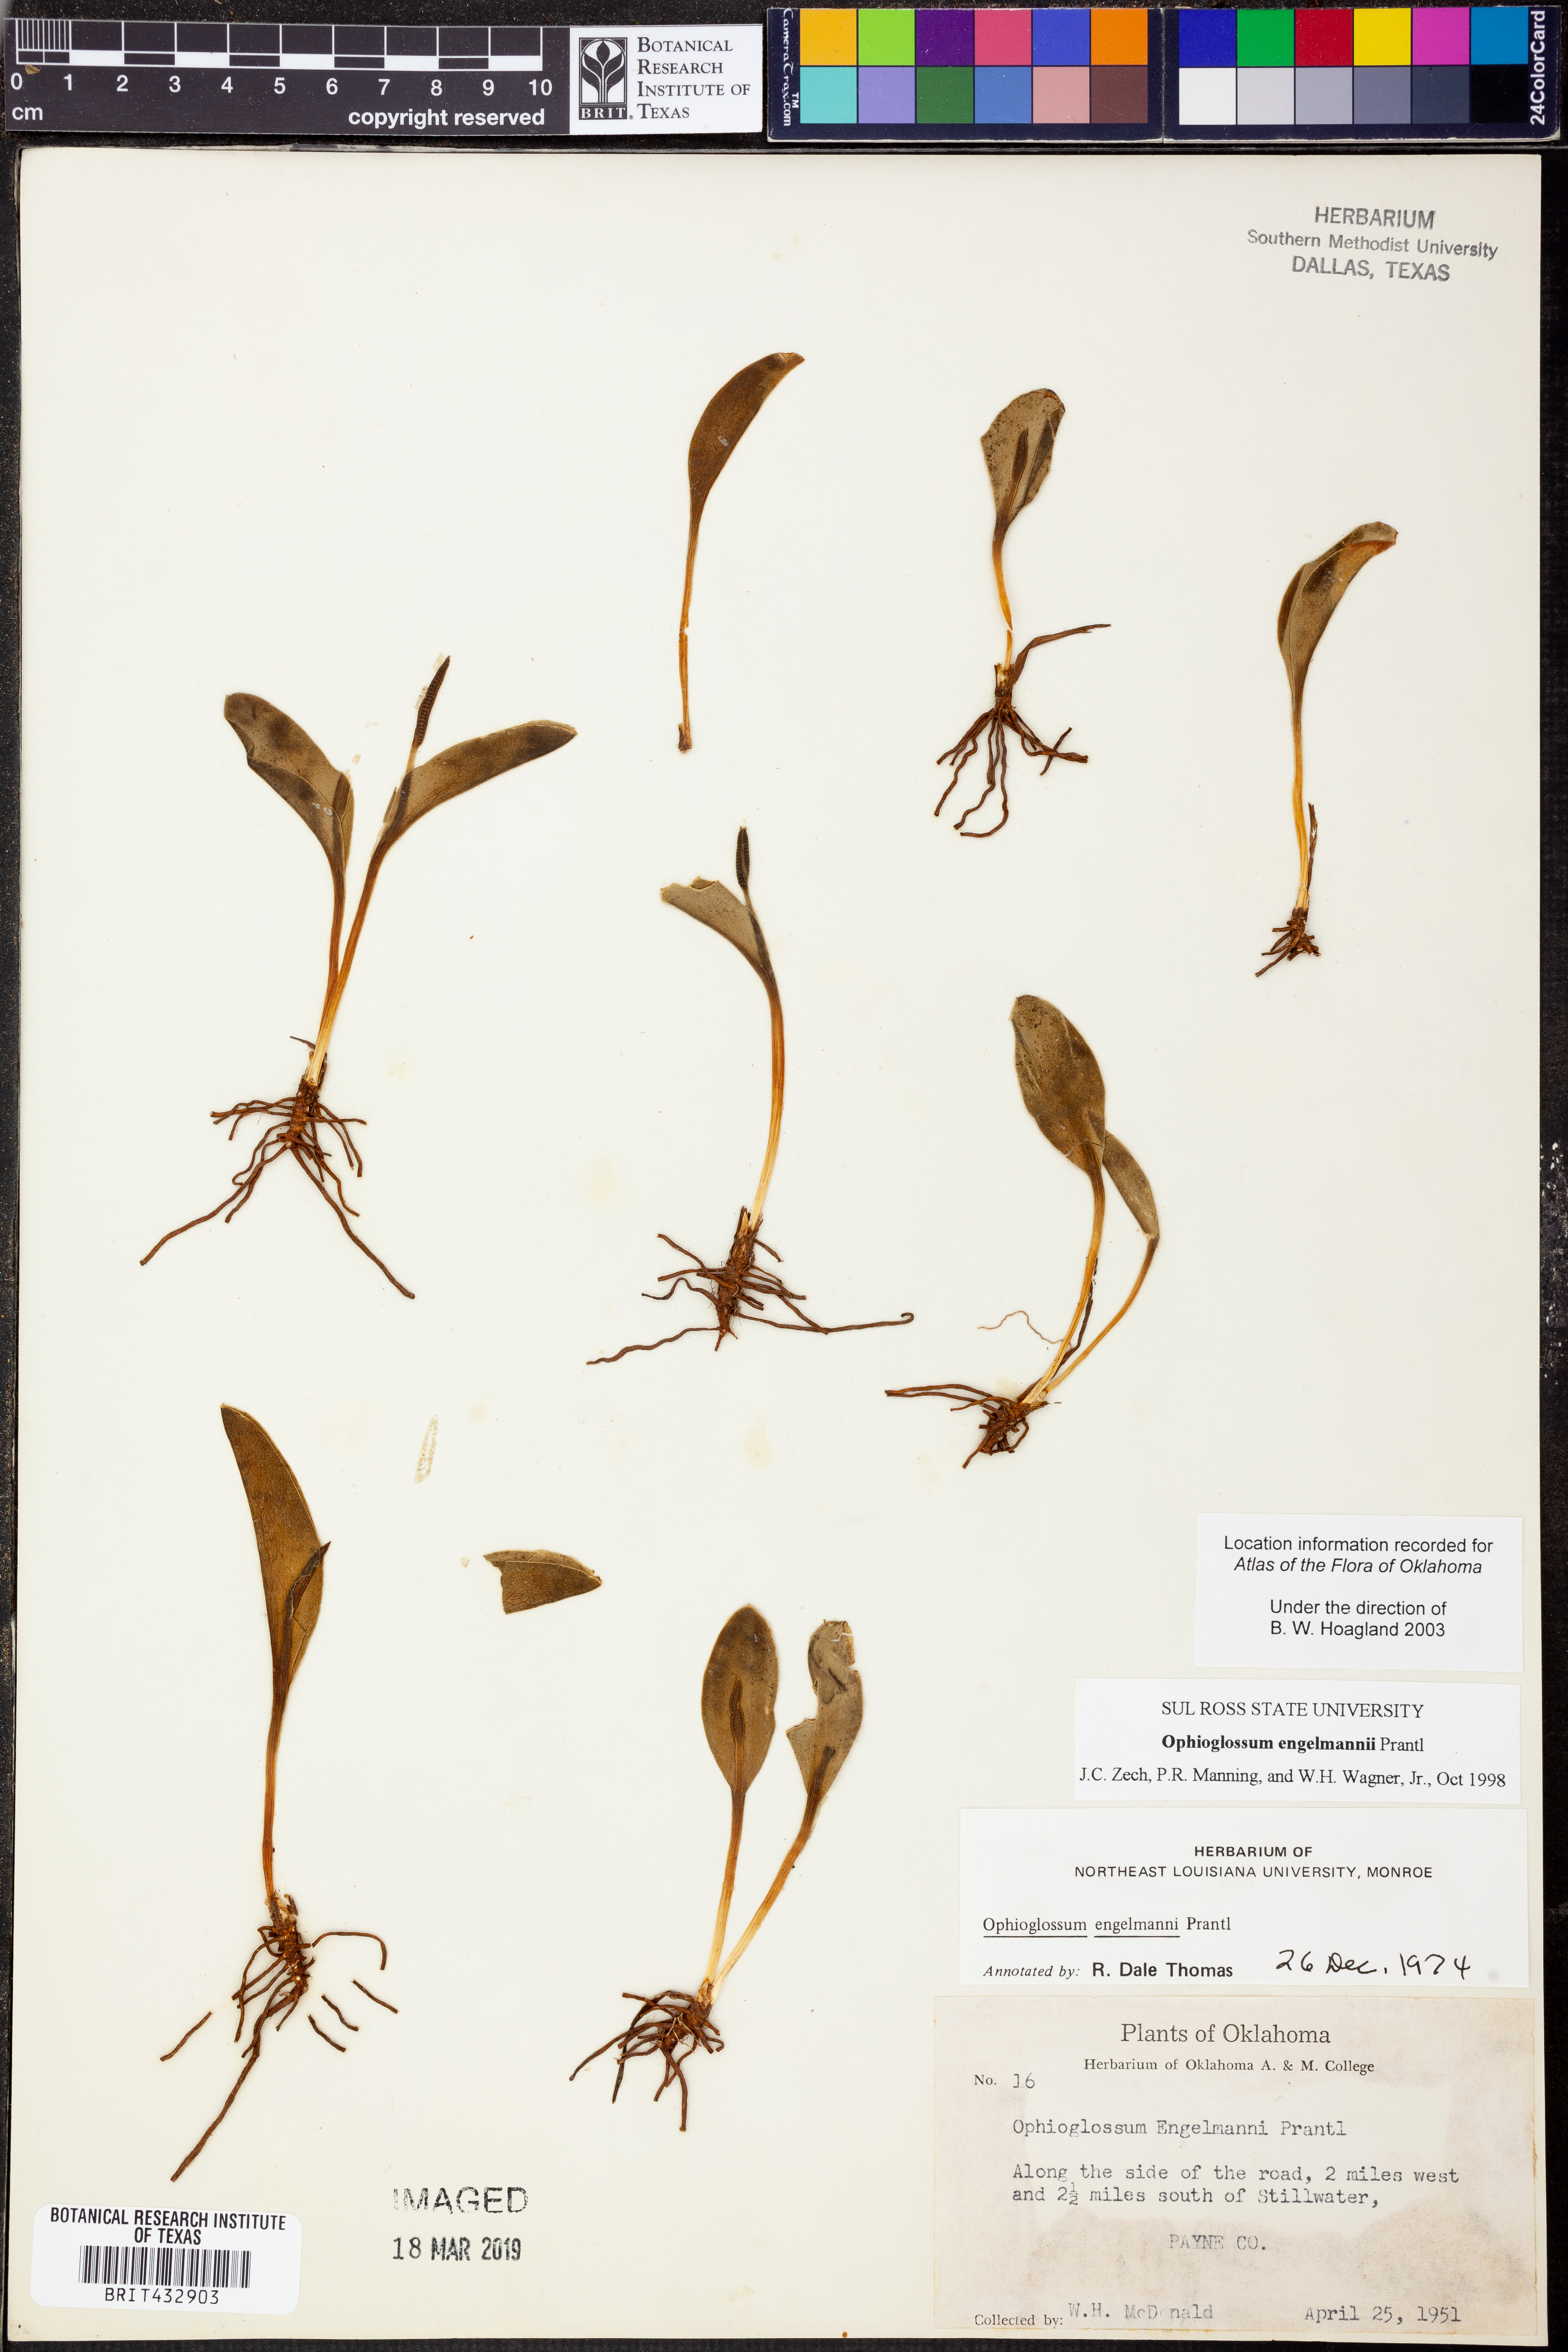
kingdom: Plantae
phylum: Tracheophyta
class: Polypodiopsida
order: Ophioglossales
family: Ophioglossaceae
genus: Ophioglossum
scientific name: Ophioglossum engelmannii
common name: Limestone adder's-tongue
